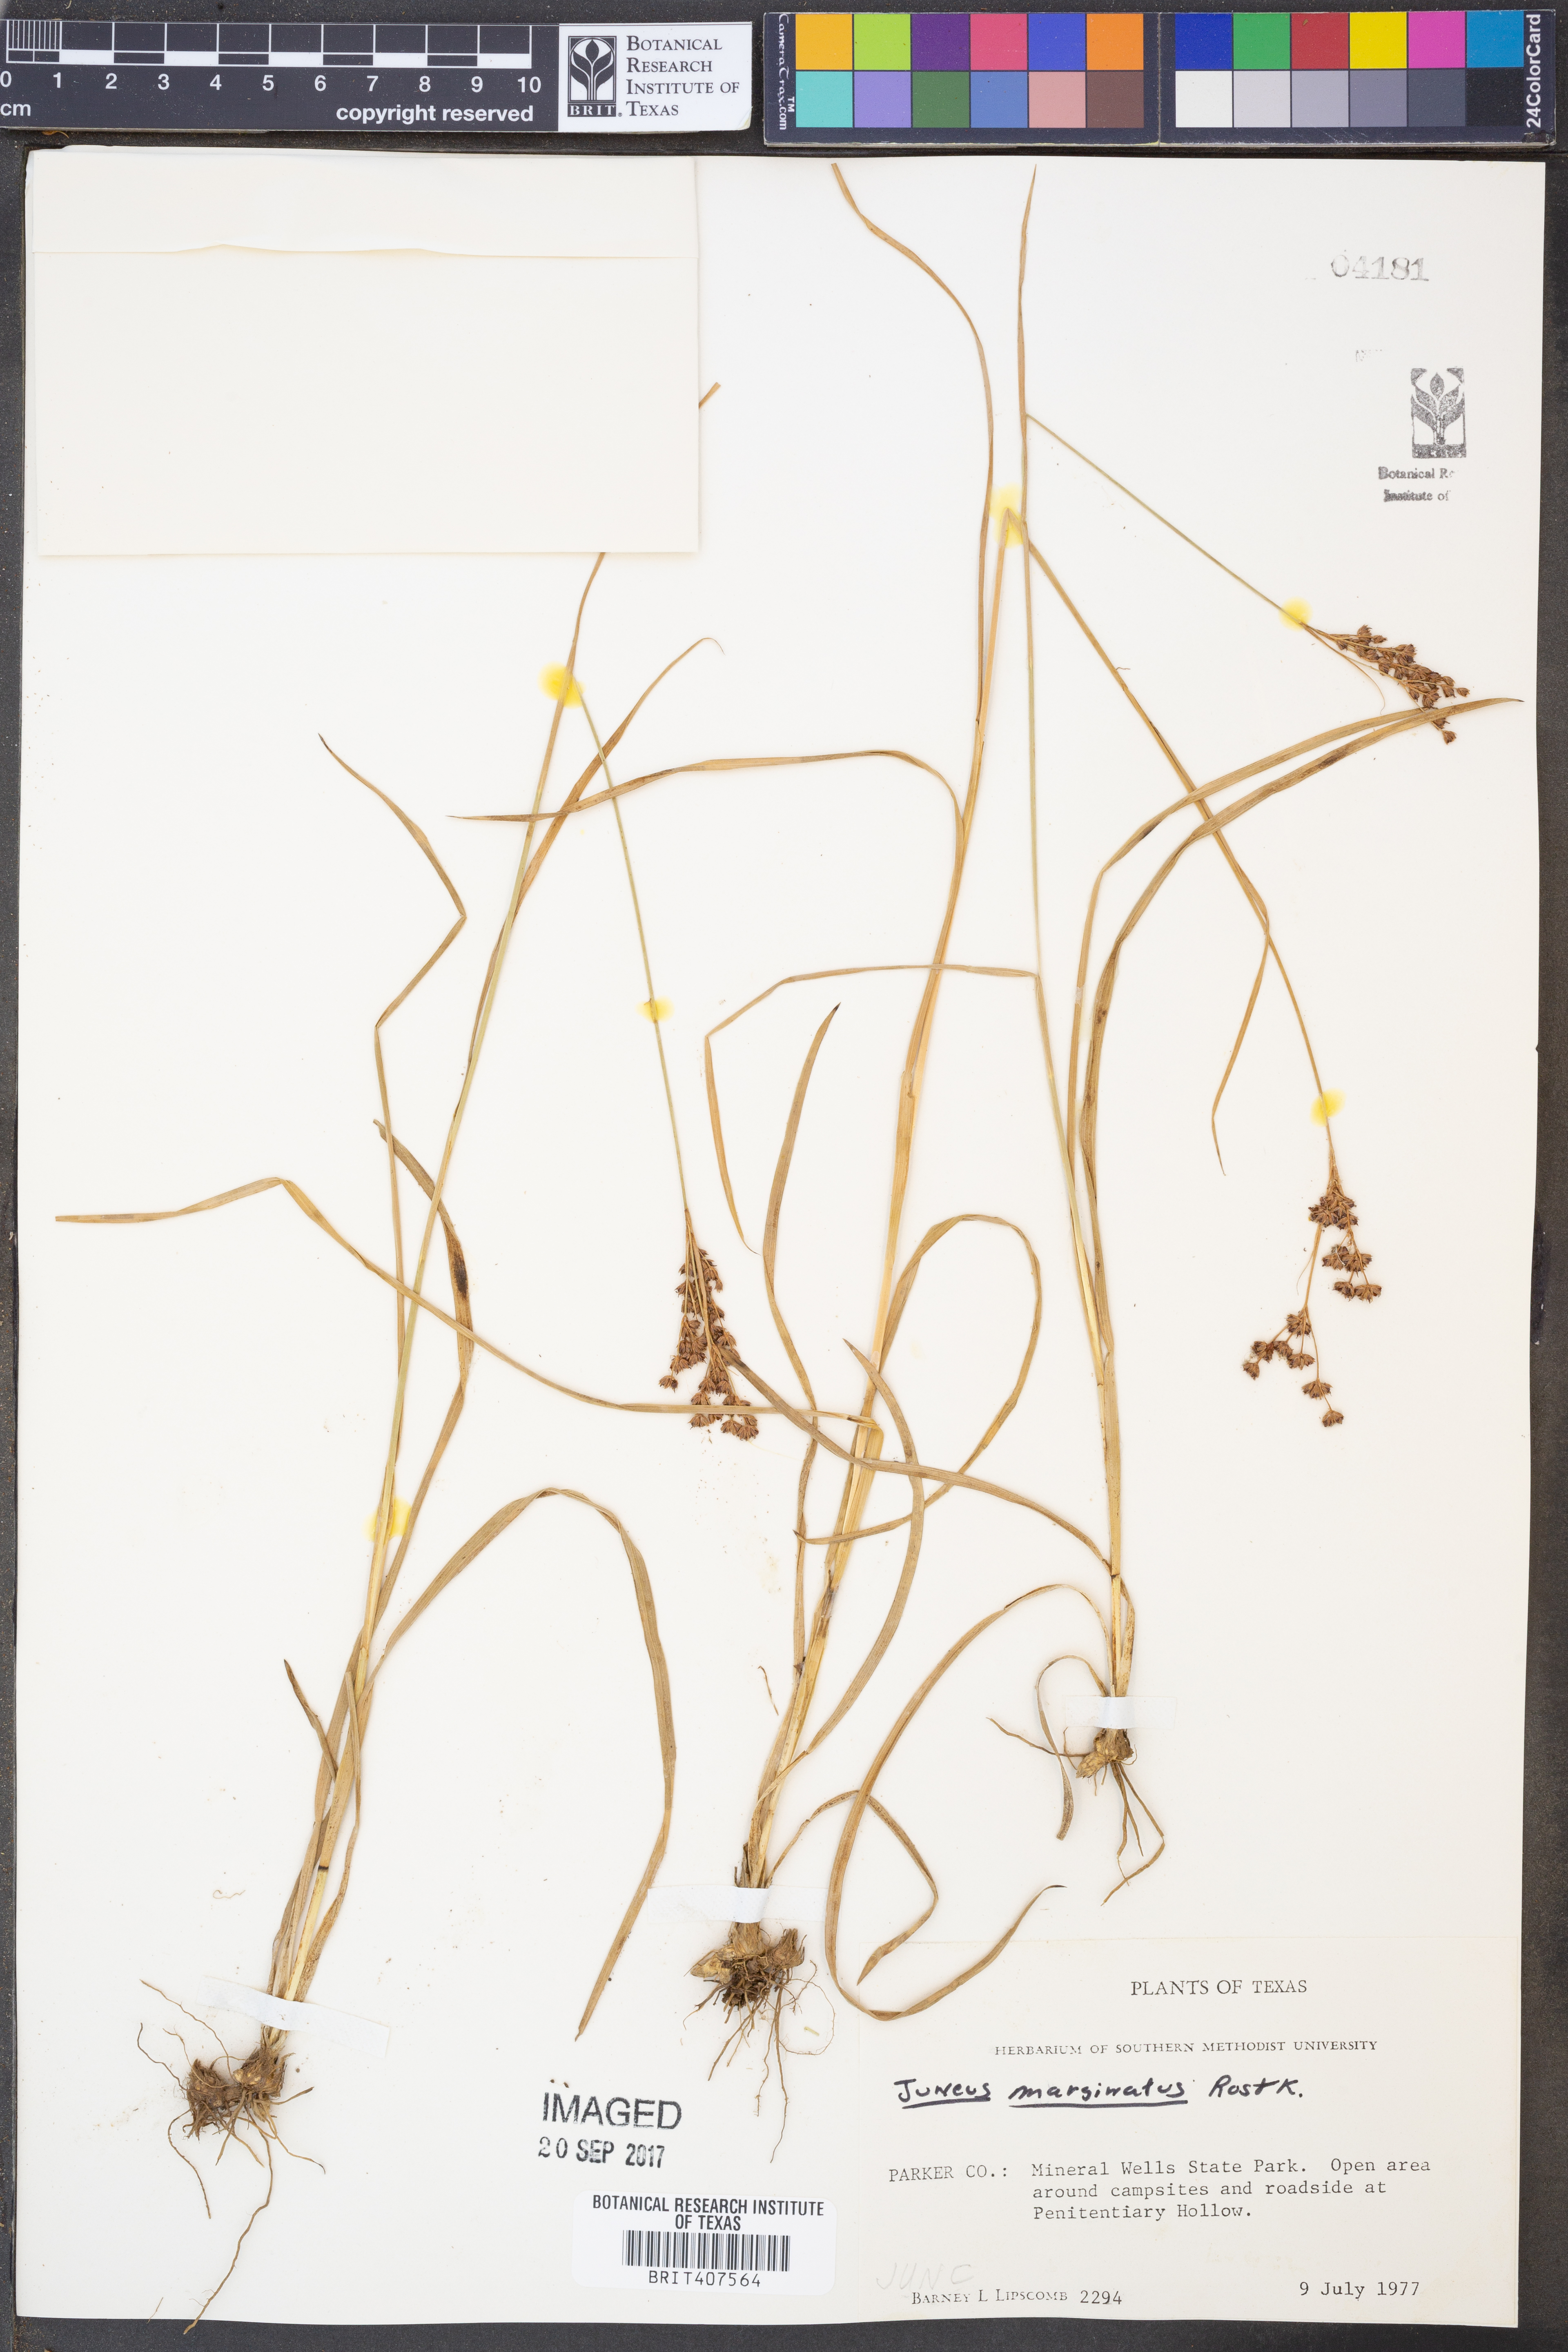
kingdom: Plantae
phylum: Tracheophyta
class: Liliopsida
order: Poales
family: Juncaceae
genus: Juncus
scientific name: Juncus marginatus
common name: Grass-leaf rush
